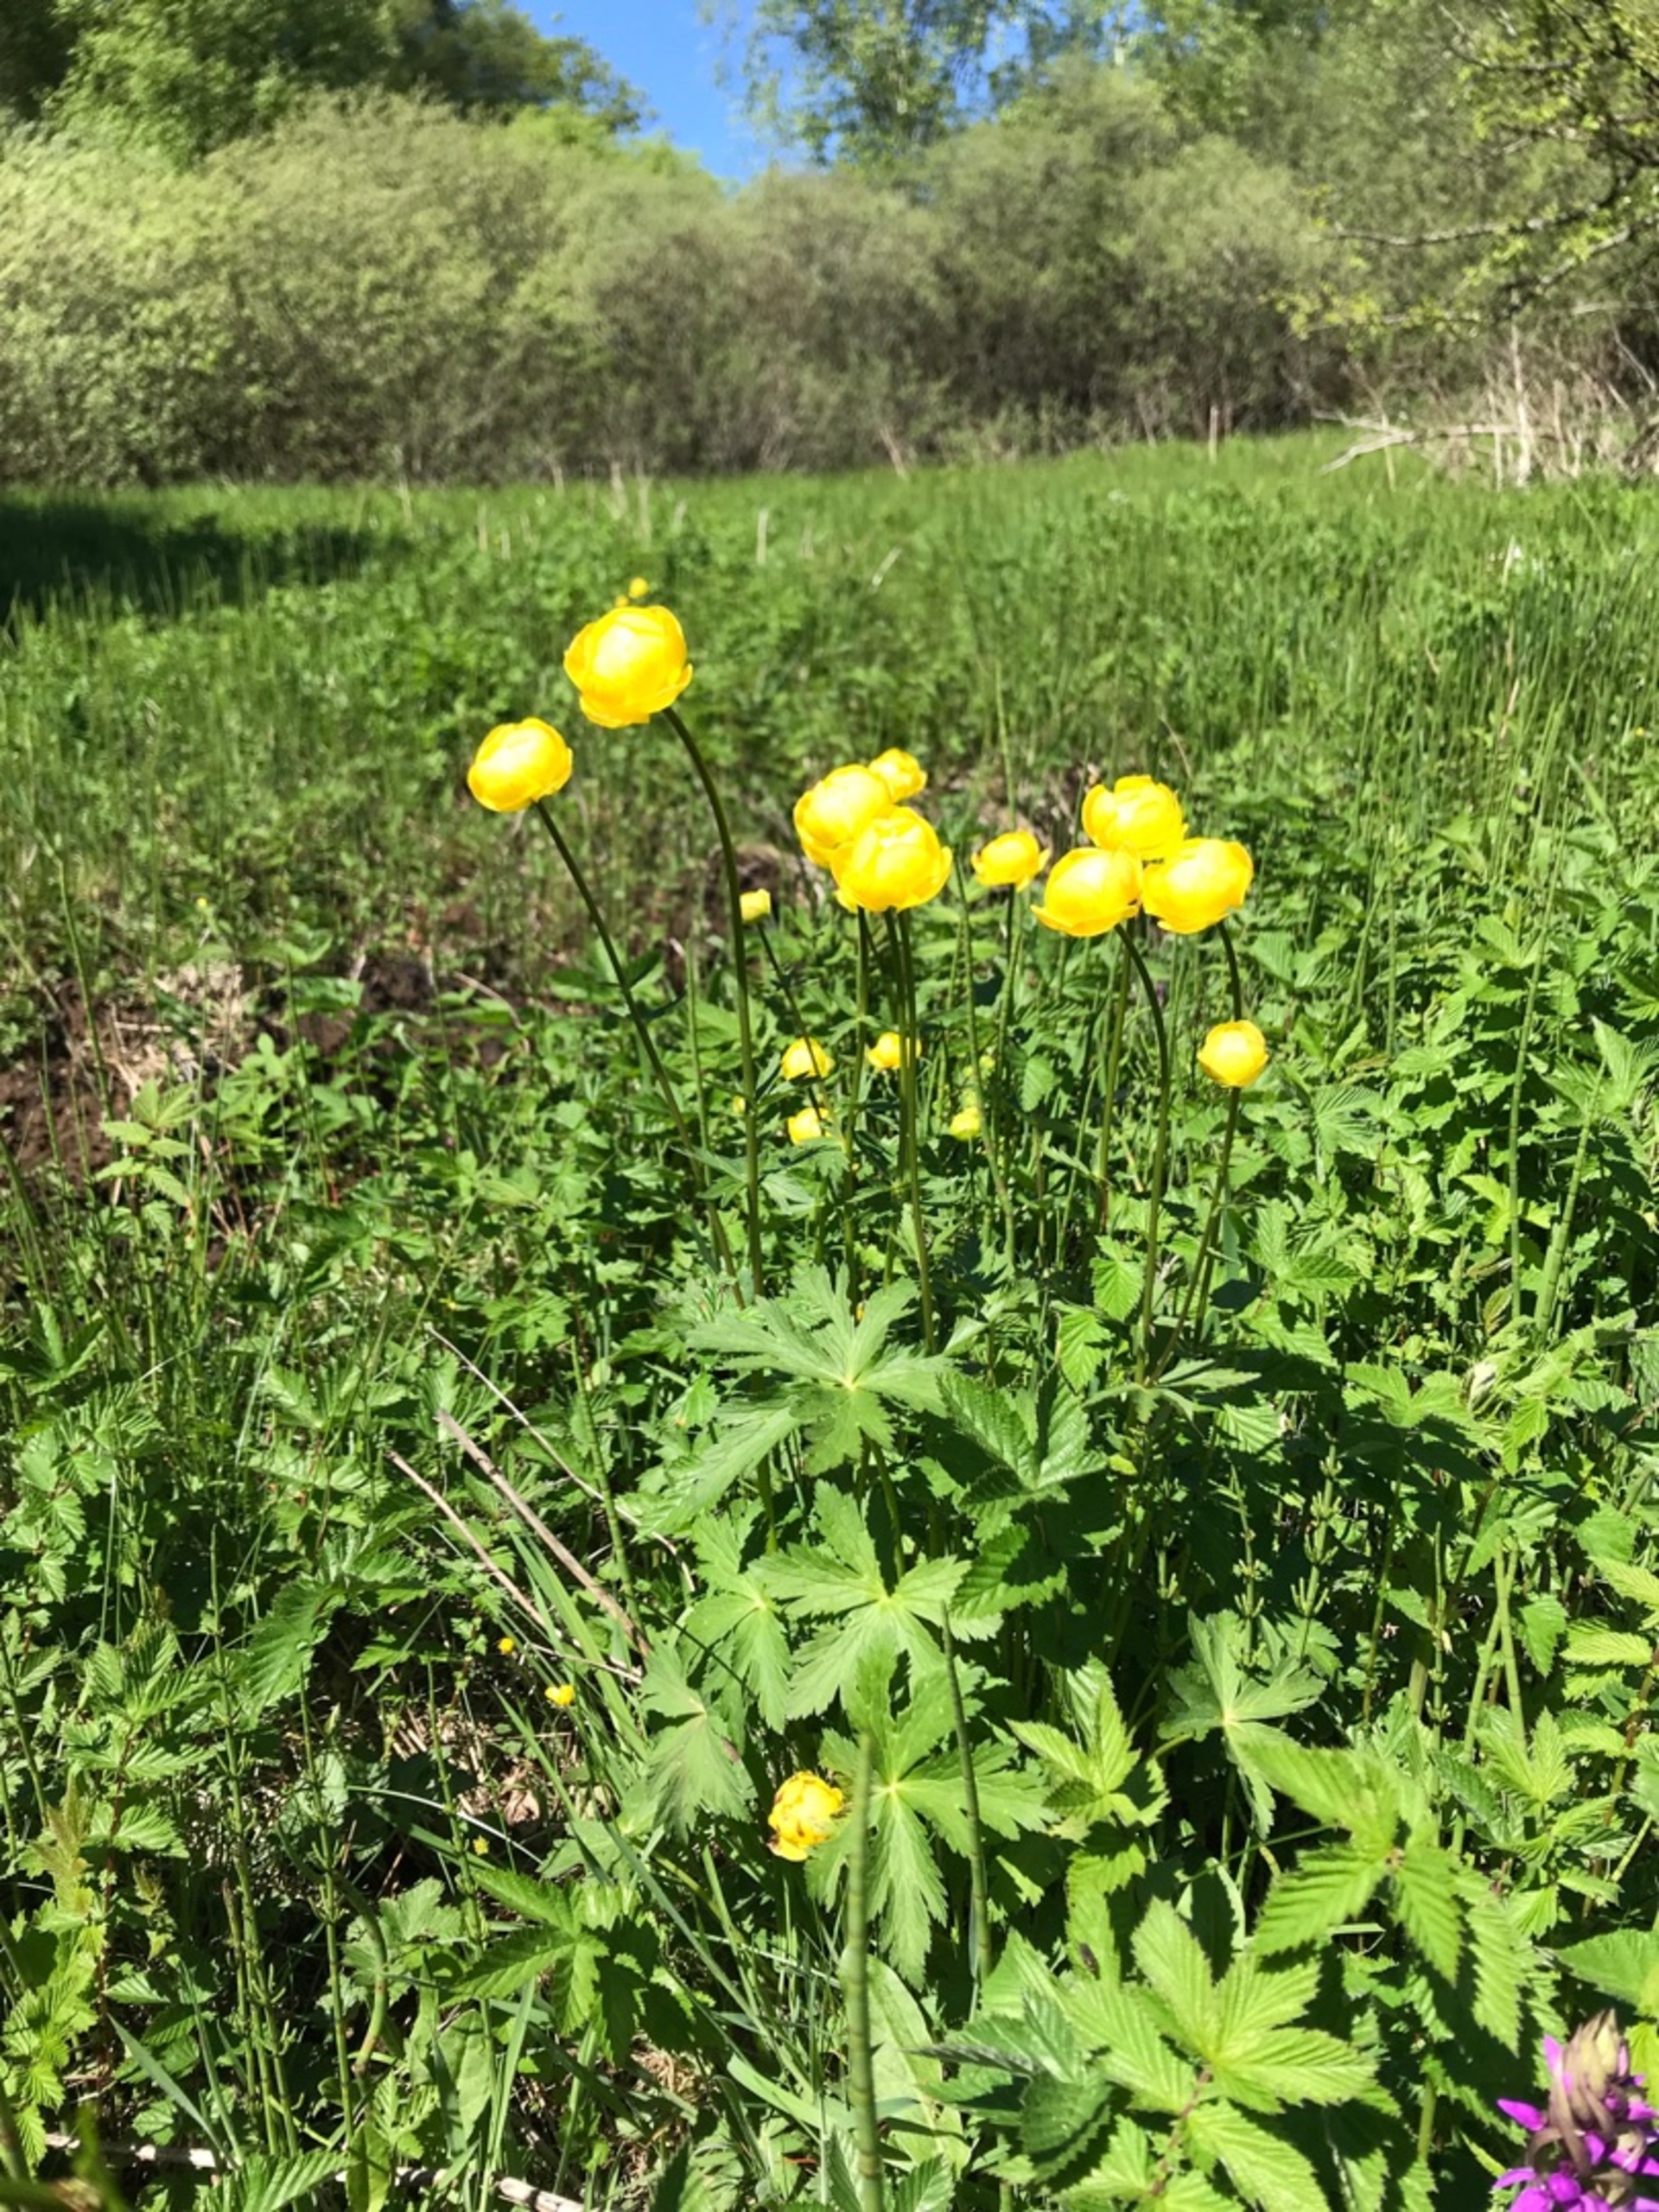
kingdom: Plantae
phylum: Tracheophyta
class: Magnoliopsida
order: Ranunculales
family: Ranunculaceae
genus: Trollius
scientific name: Trollius europaeus
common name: Engblomme
